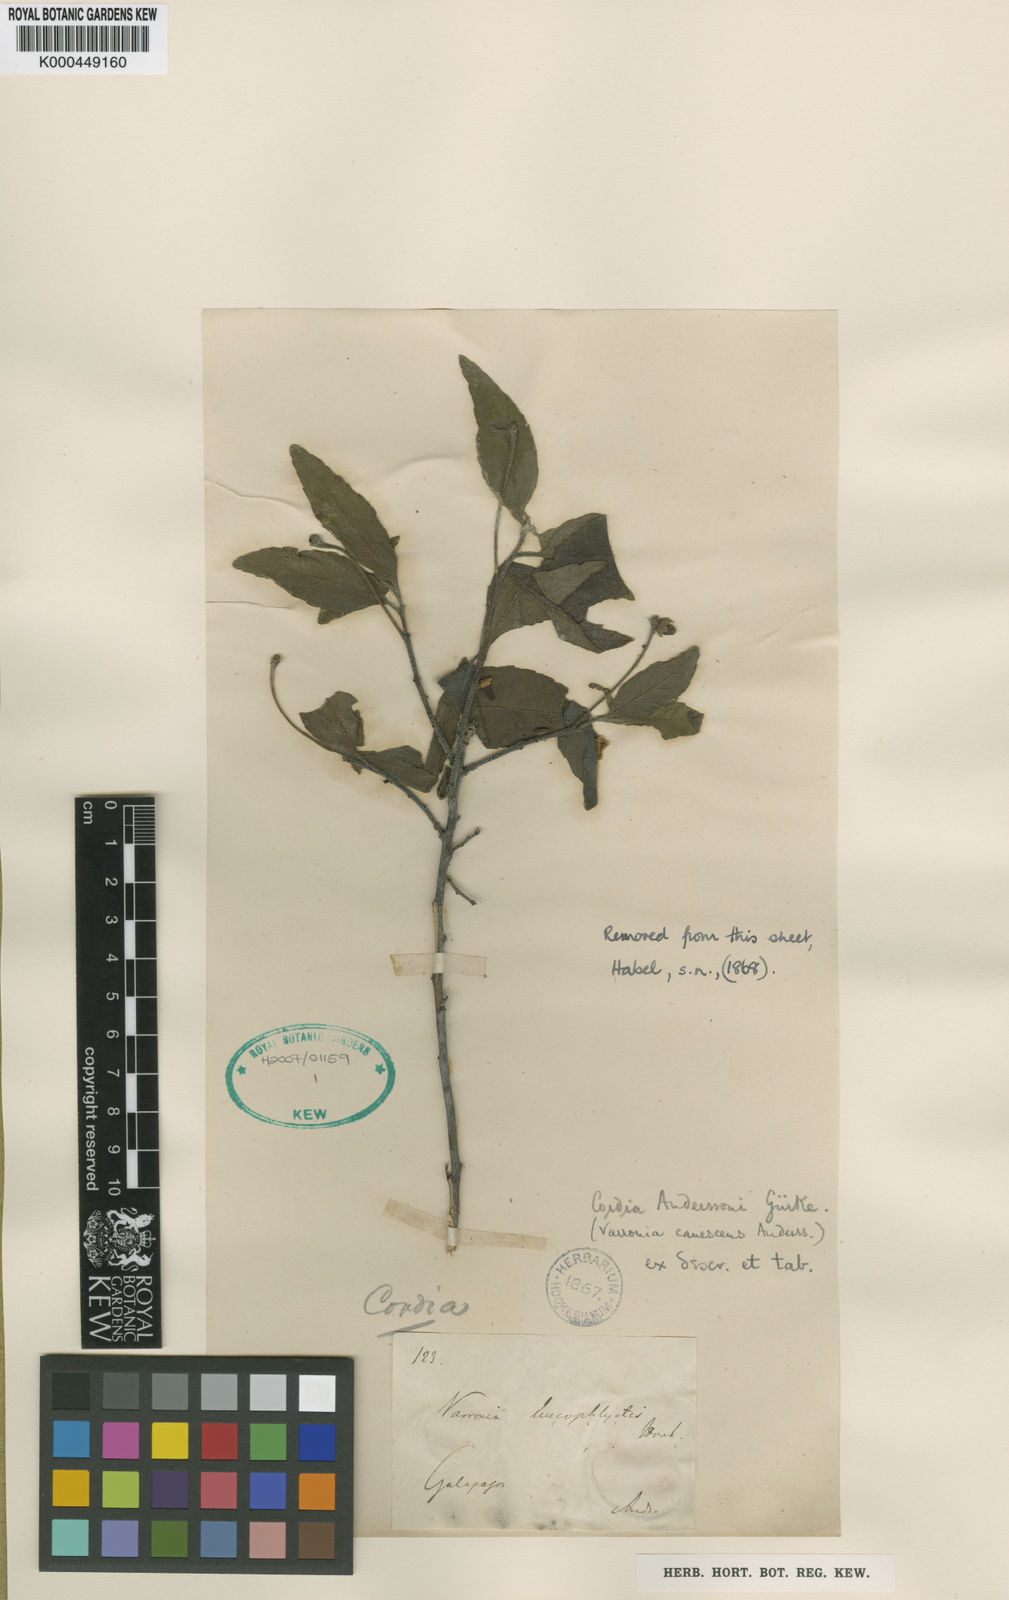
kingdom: Plantae
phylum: Tracheophyta
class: Magnoliopsida
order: Boraginales
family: Cordiaceae
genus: Cordia
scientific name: Cordia
